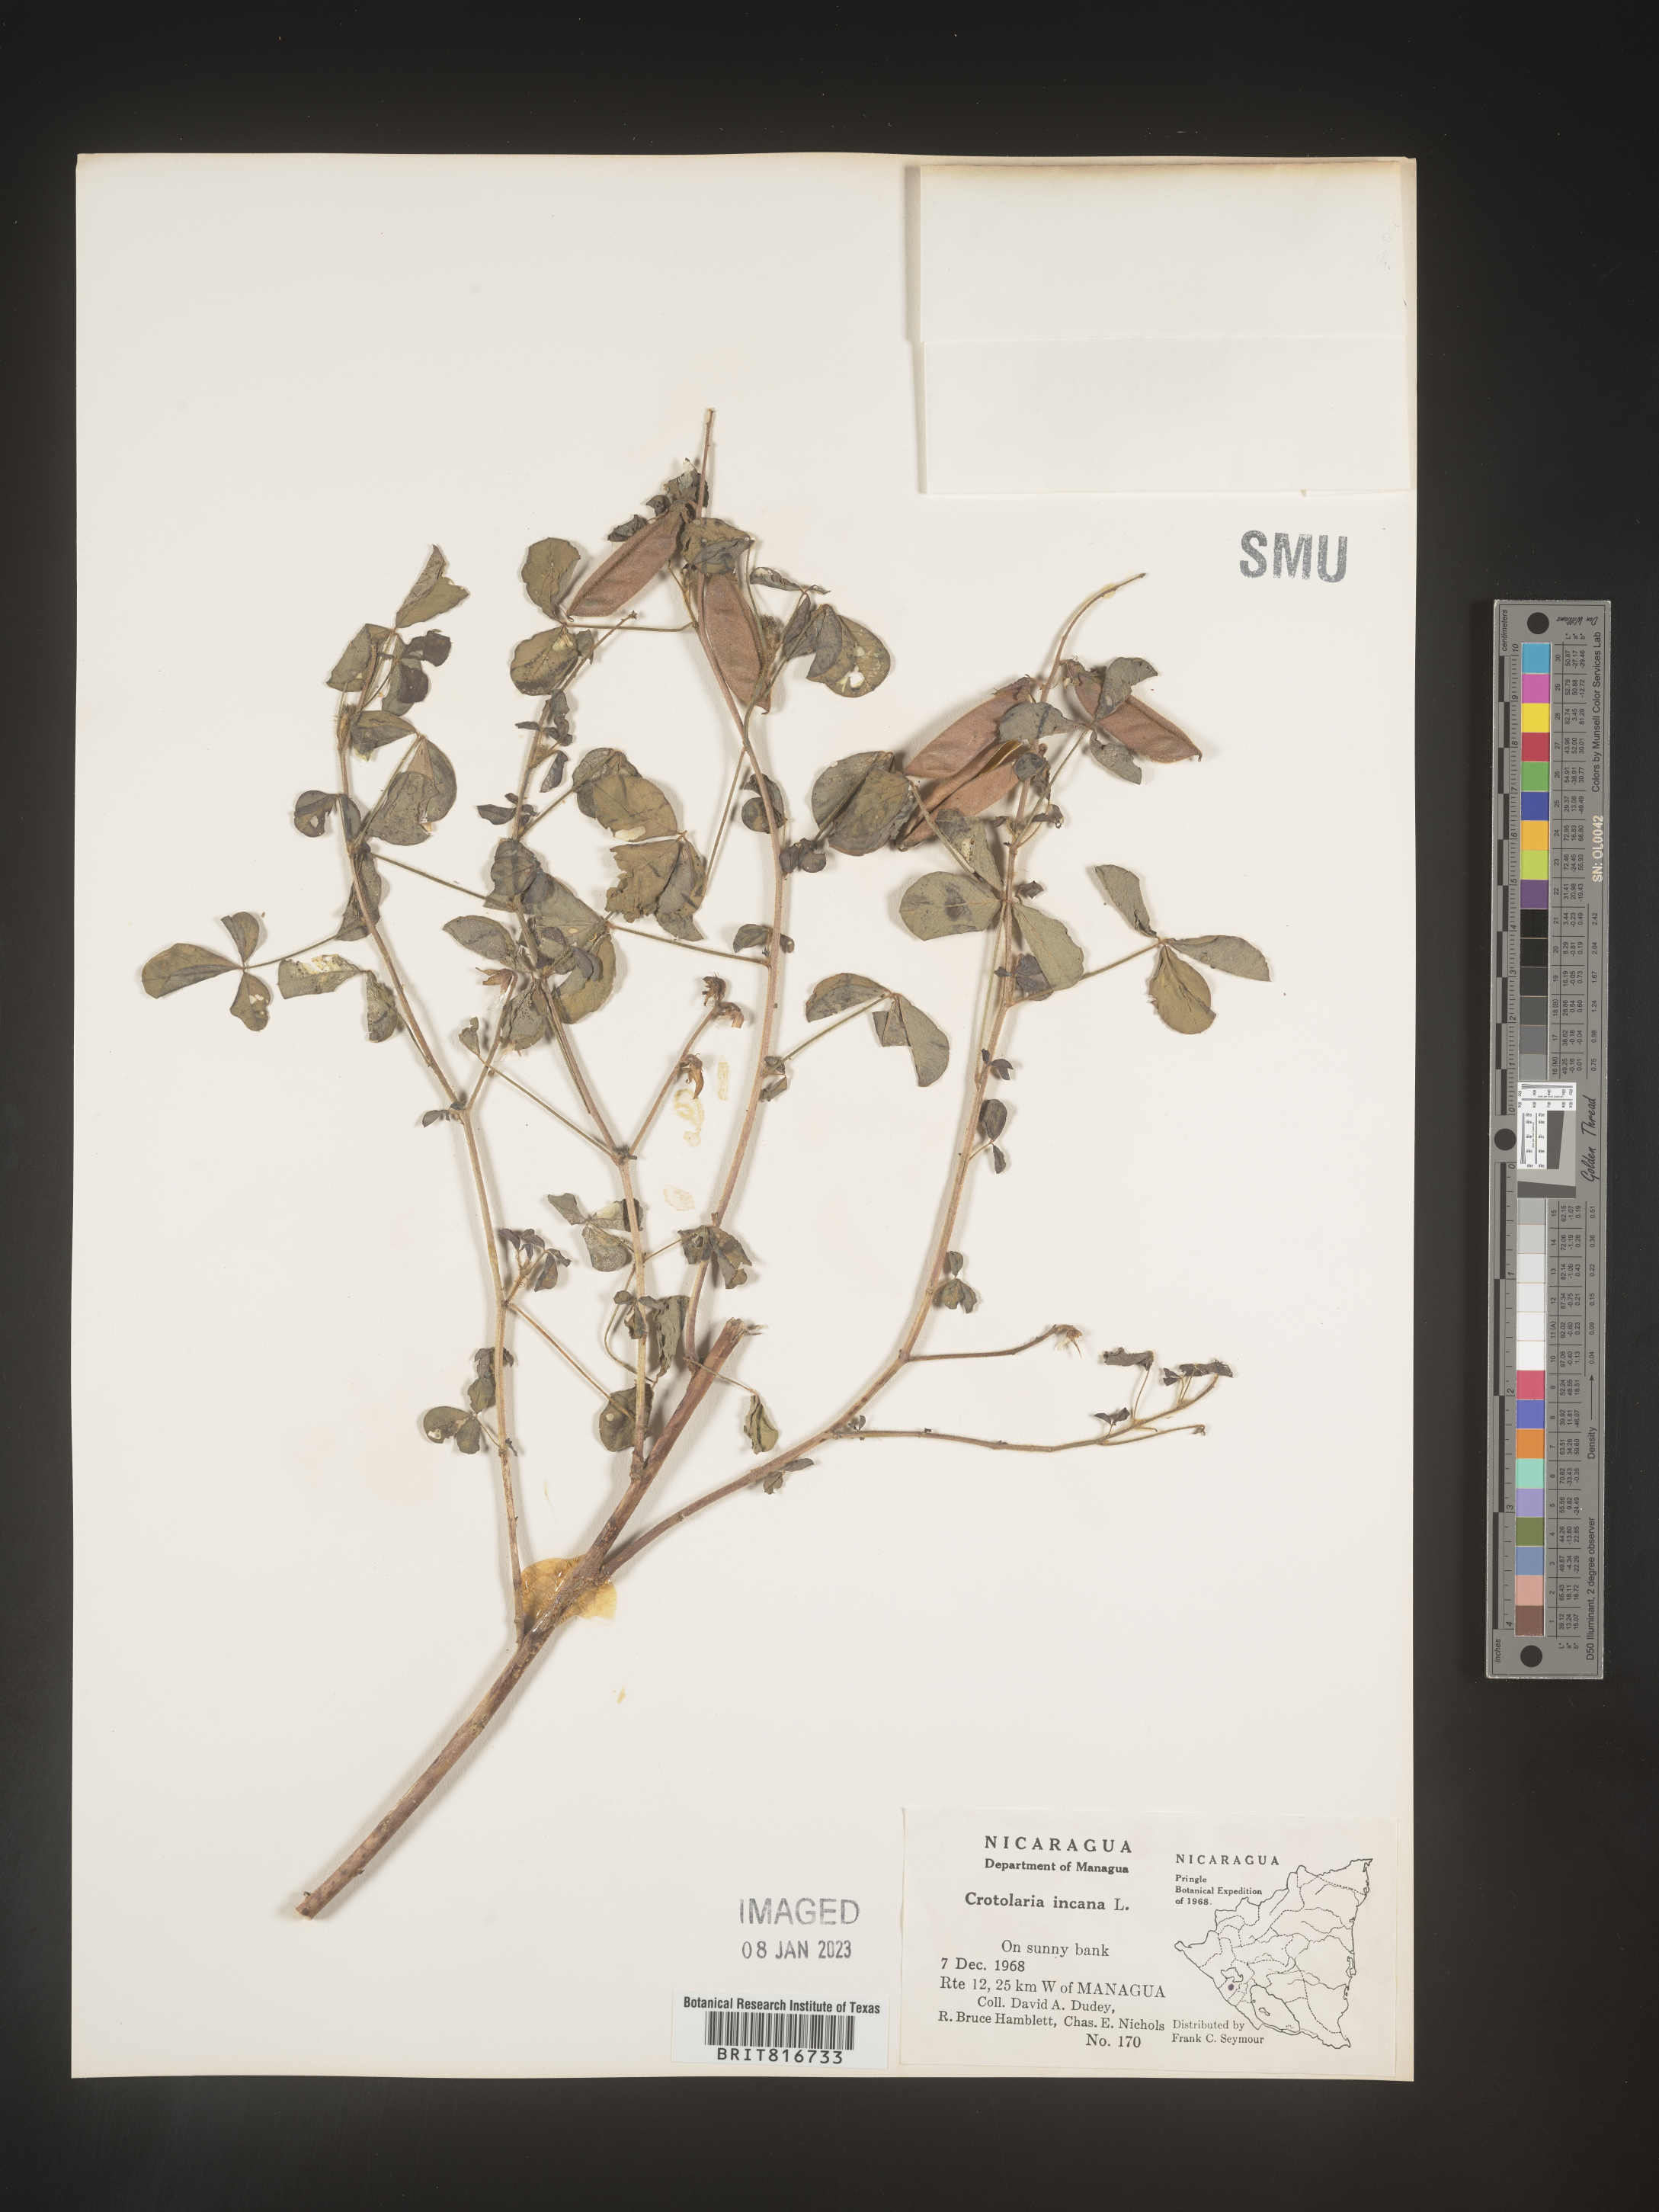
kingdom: Plantae
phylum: Tracheophyta
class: Magnoliopsida
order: Fabales
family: Fabaceae
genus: Crotalaria
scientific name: Crotalaria
